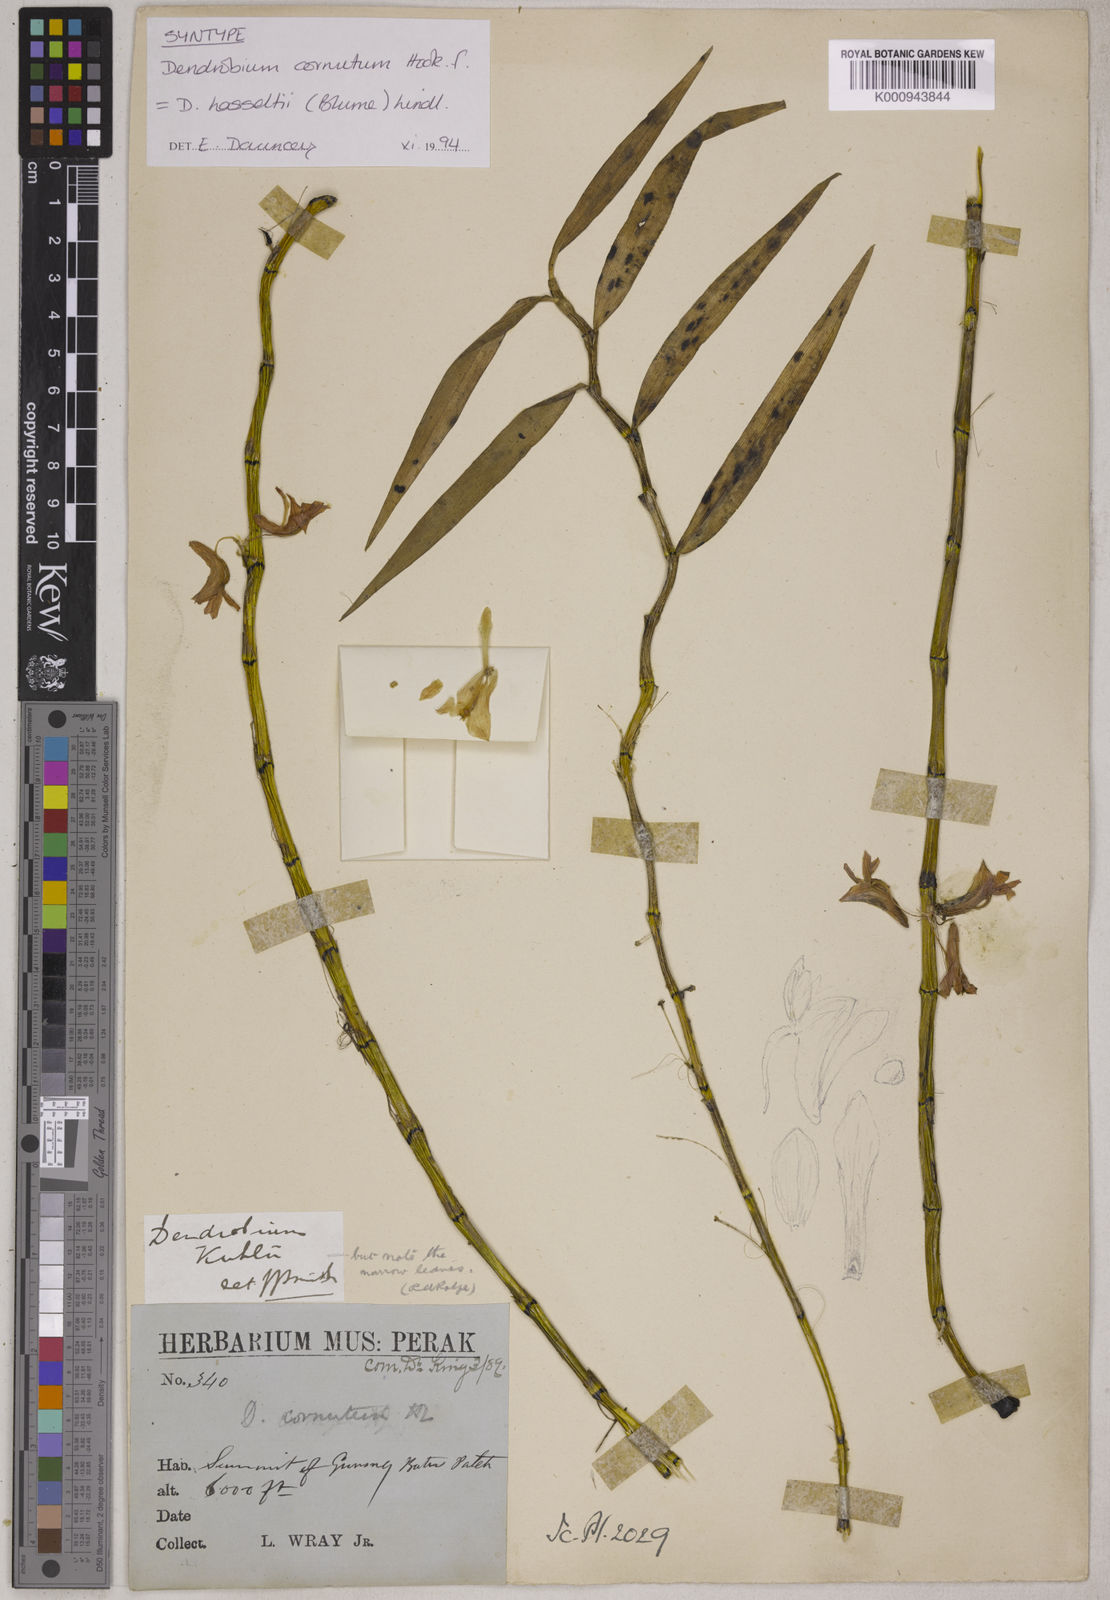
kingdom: Plantae
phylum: Tracheophyta
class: Liliopsida
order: Asparagales
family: Orchidaceae
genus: Dendrobium
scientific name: Dendrobium hasseltii
